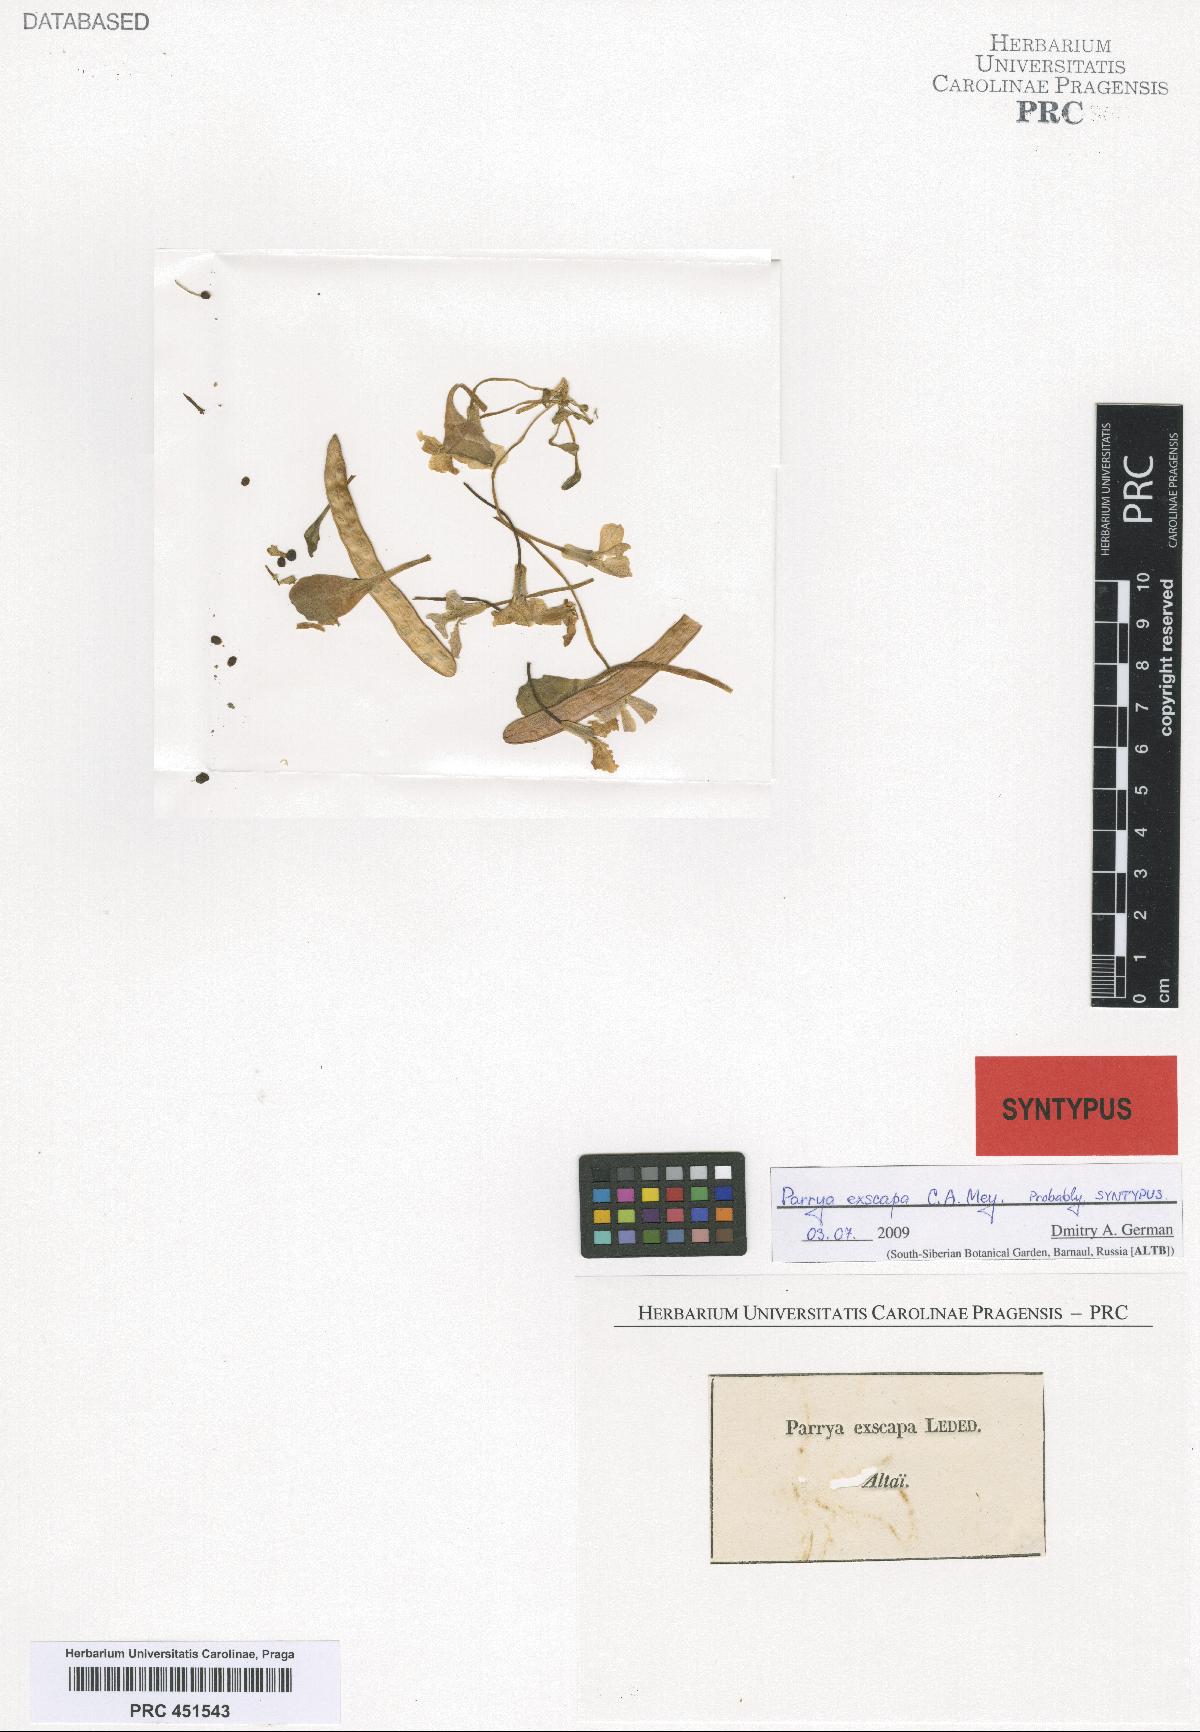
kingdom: Plantae
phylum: Tracheophyta
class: Magnoliopsida
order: Brassicales
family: Brassicaceae
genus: Leiospora
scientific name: Leiospora exscapa
